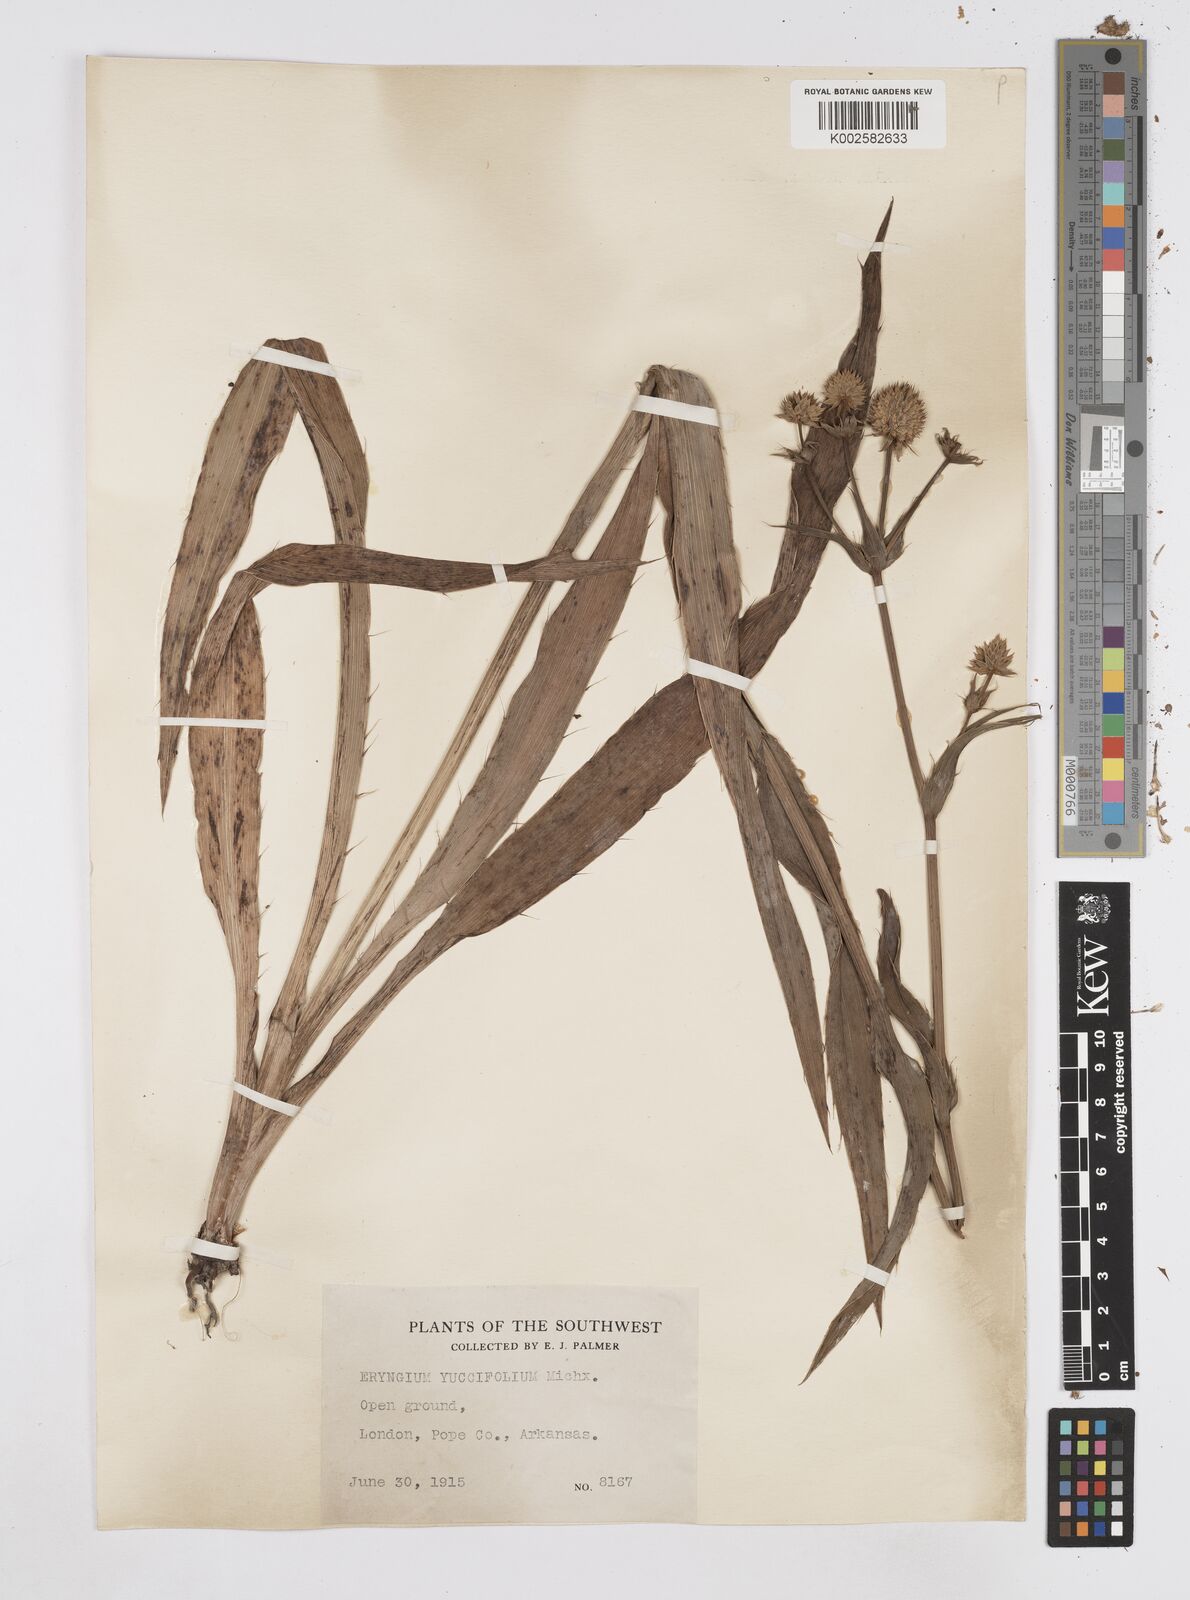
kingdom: Plantae
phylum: Tracheophyta
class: Magnoliopsida
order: Apiales
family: Apiaceae
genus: Eryngium
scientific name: Eryngium yuccifolium
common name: Button eryngo
